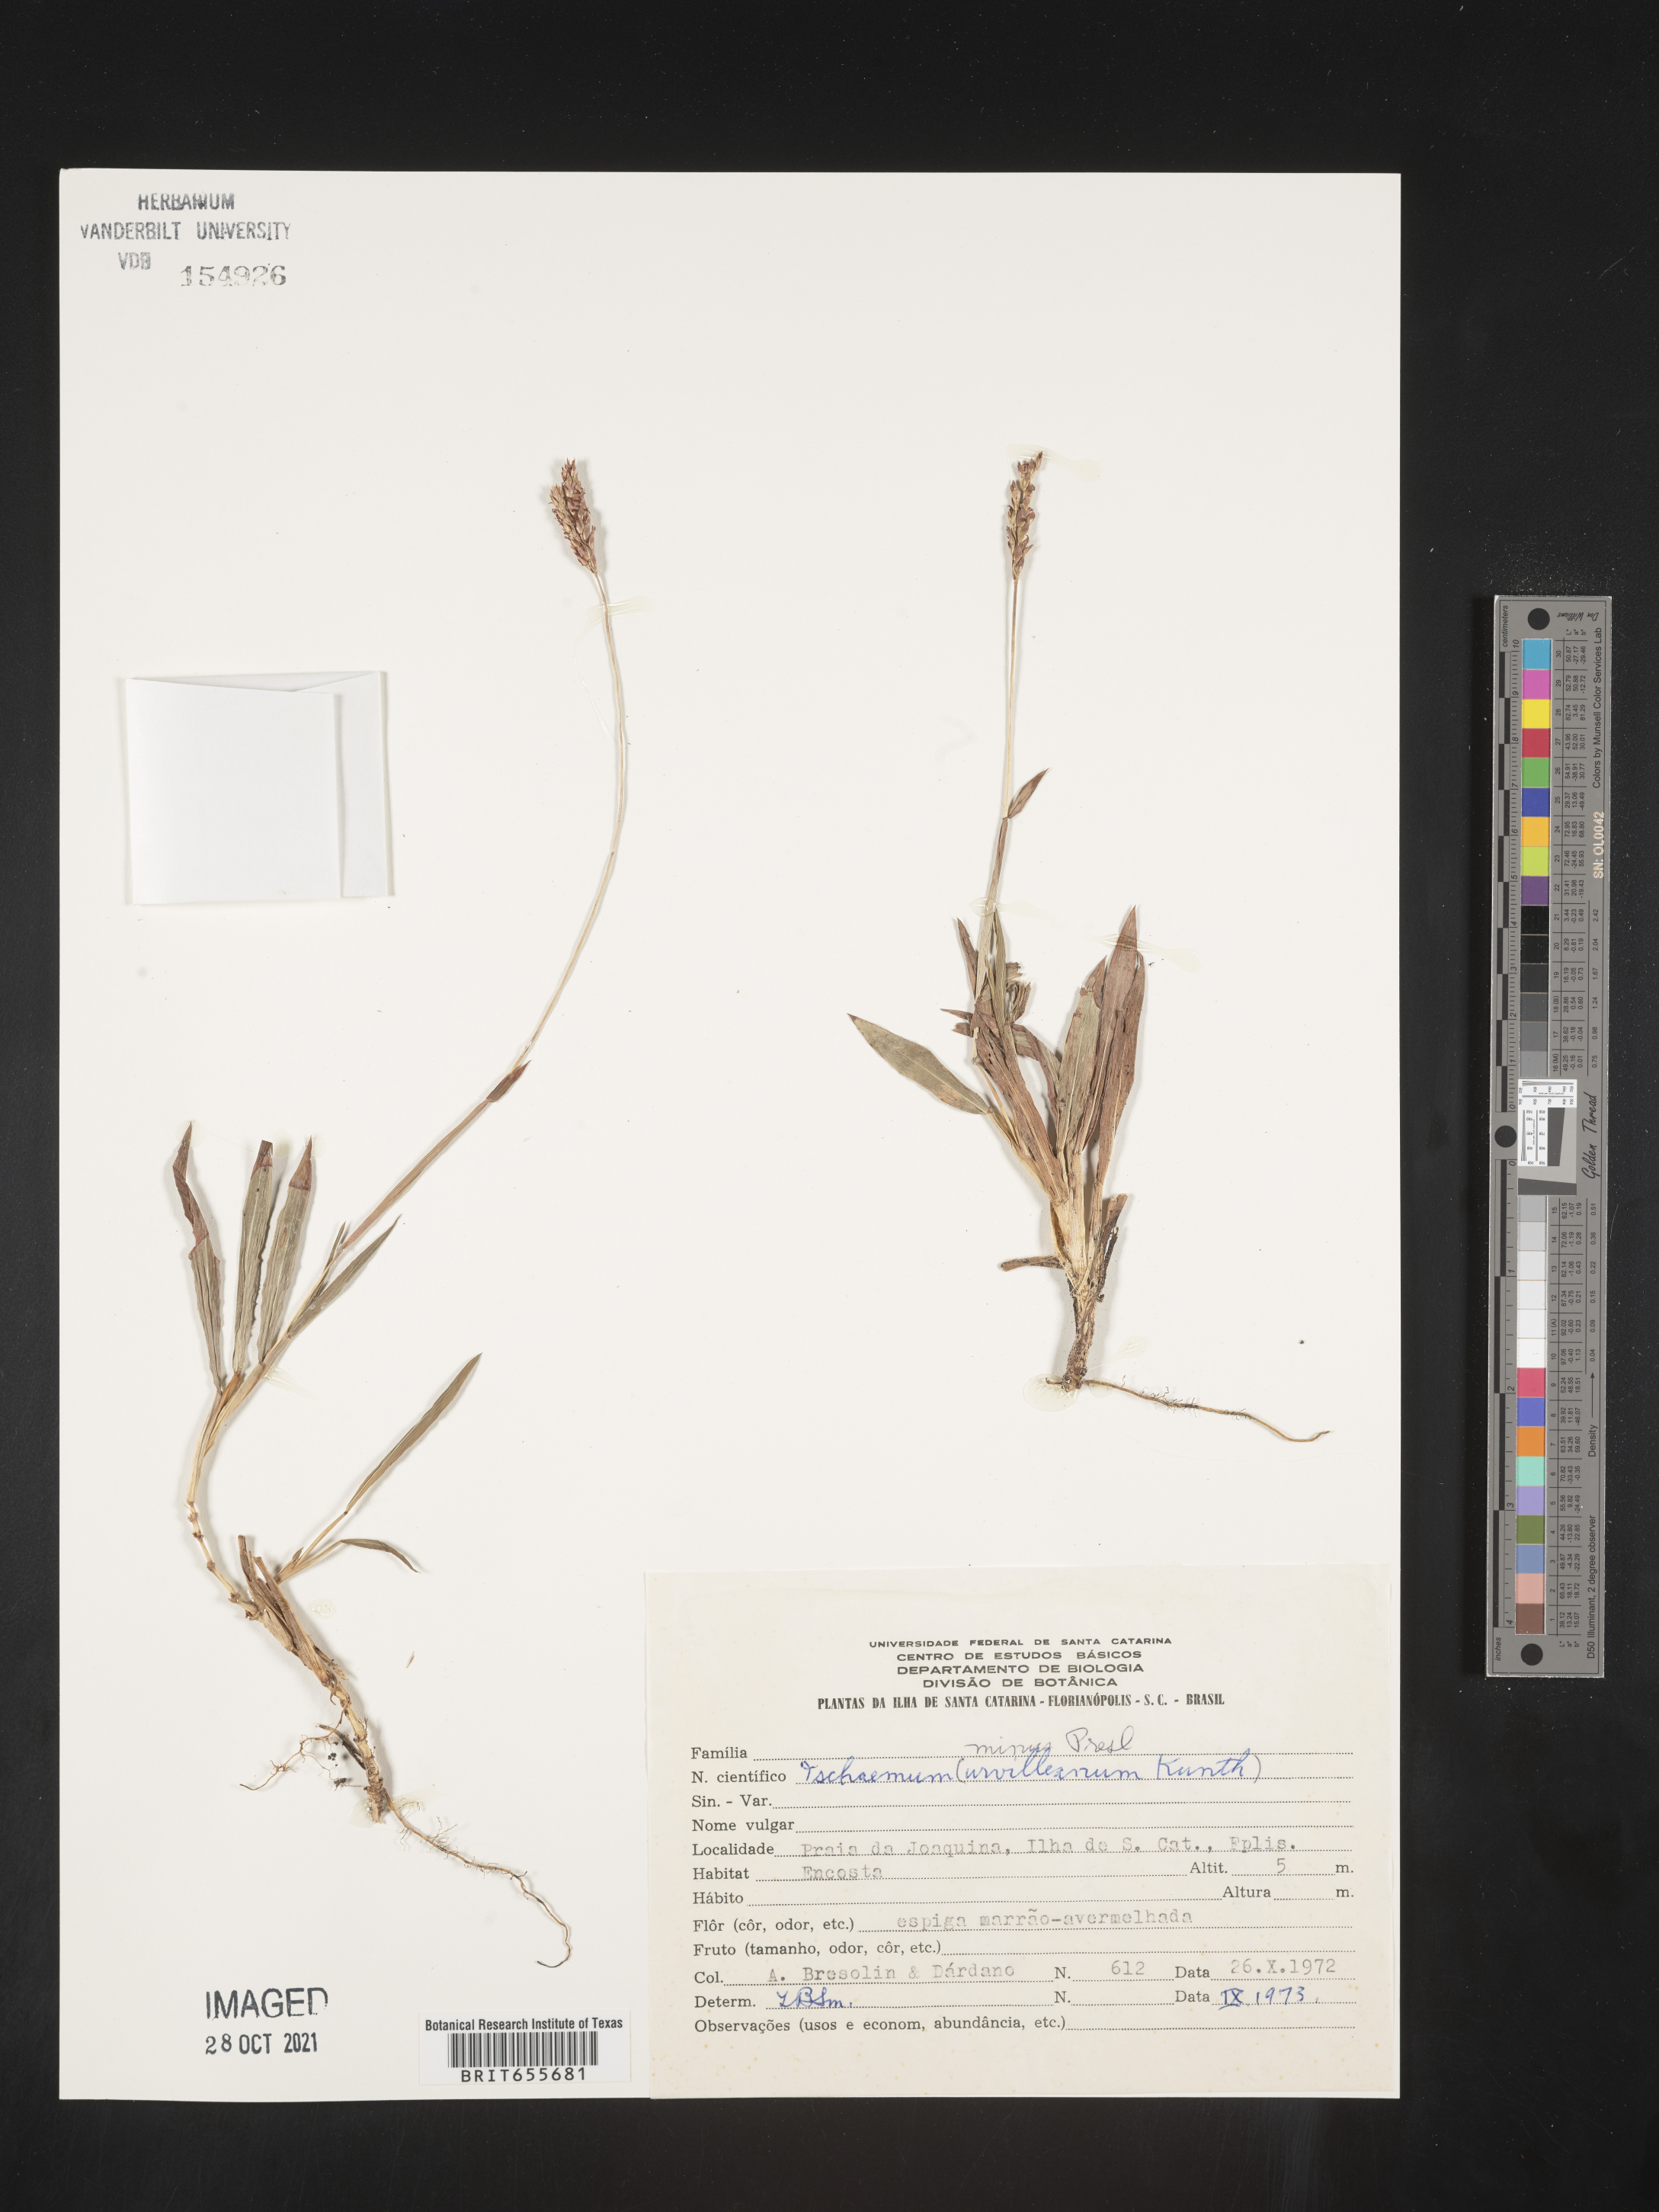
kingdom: Plantae
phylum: Tracheophyta
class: Liliopsida
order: Poales
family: Poaceae
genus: Ischaemum
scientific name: Ischaemum
